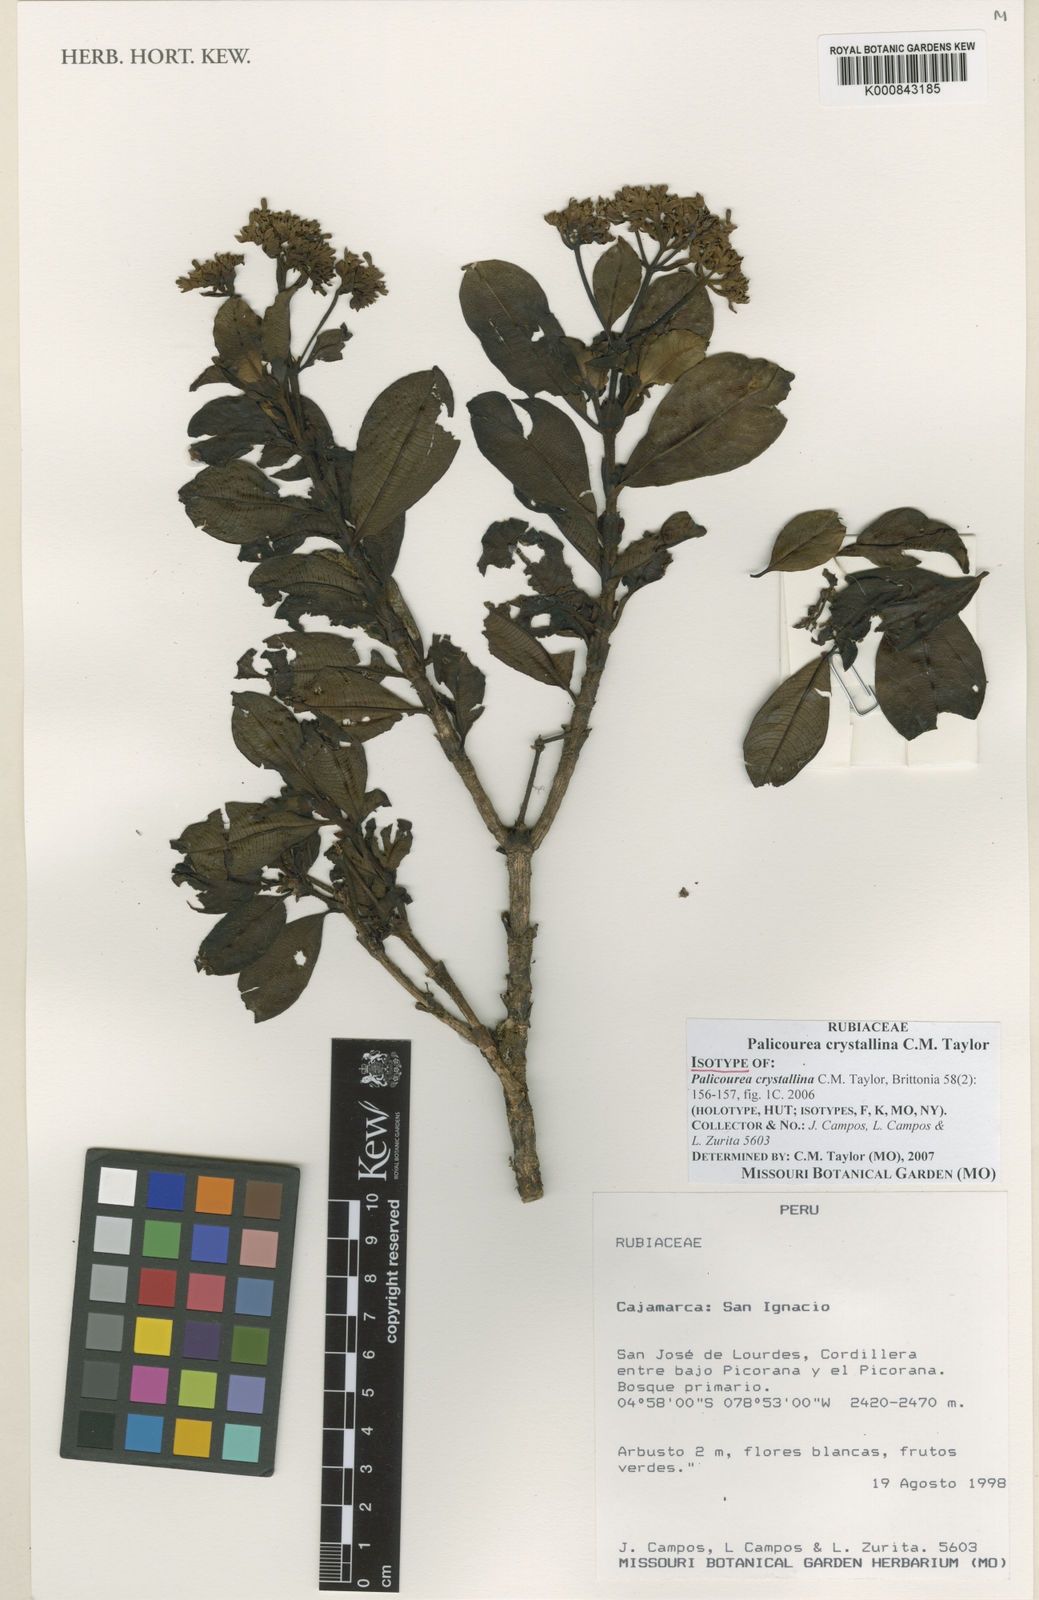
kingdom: Plantae
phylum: Tracheophyta
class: Magnoliopsida
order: Gentianales
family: Rubiaceae
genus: Palicourea
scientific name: Palicourea crystallina
